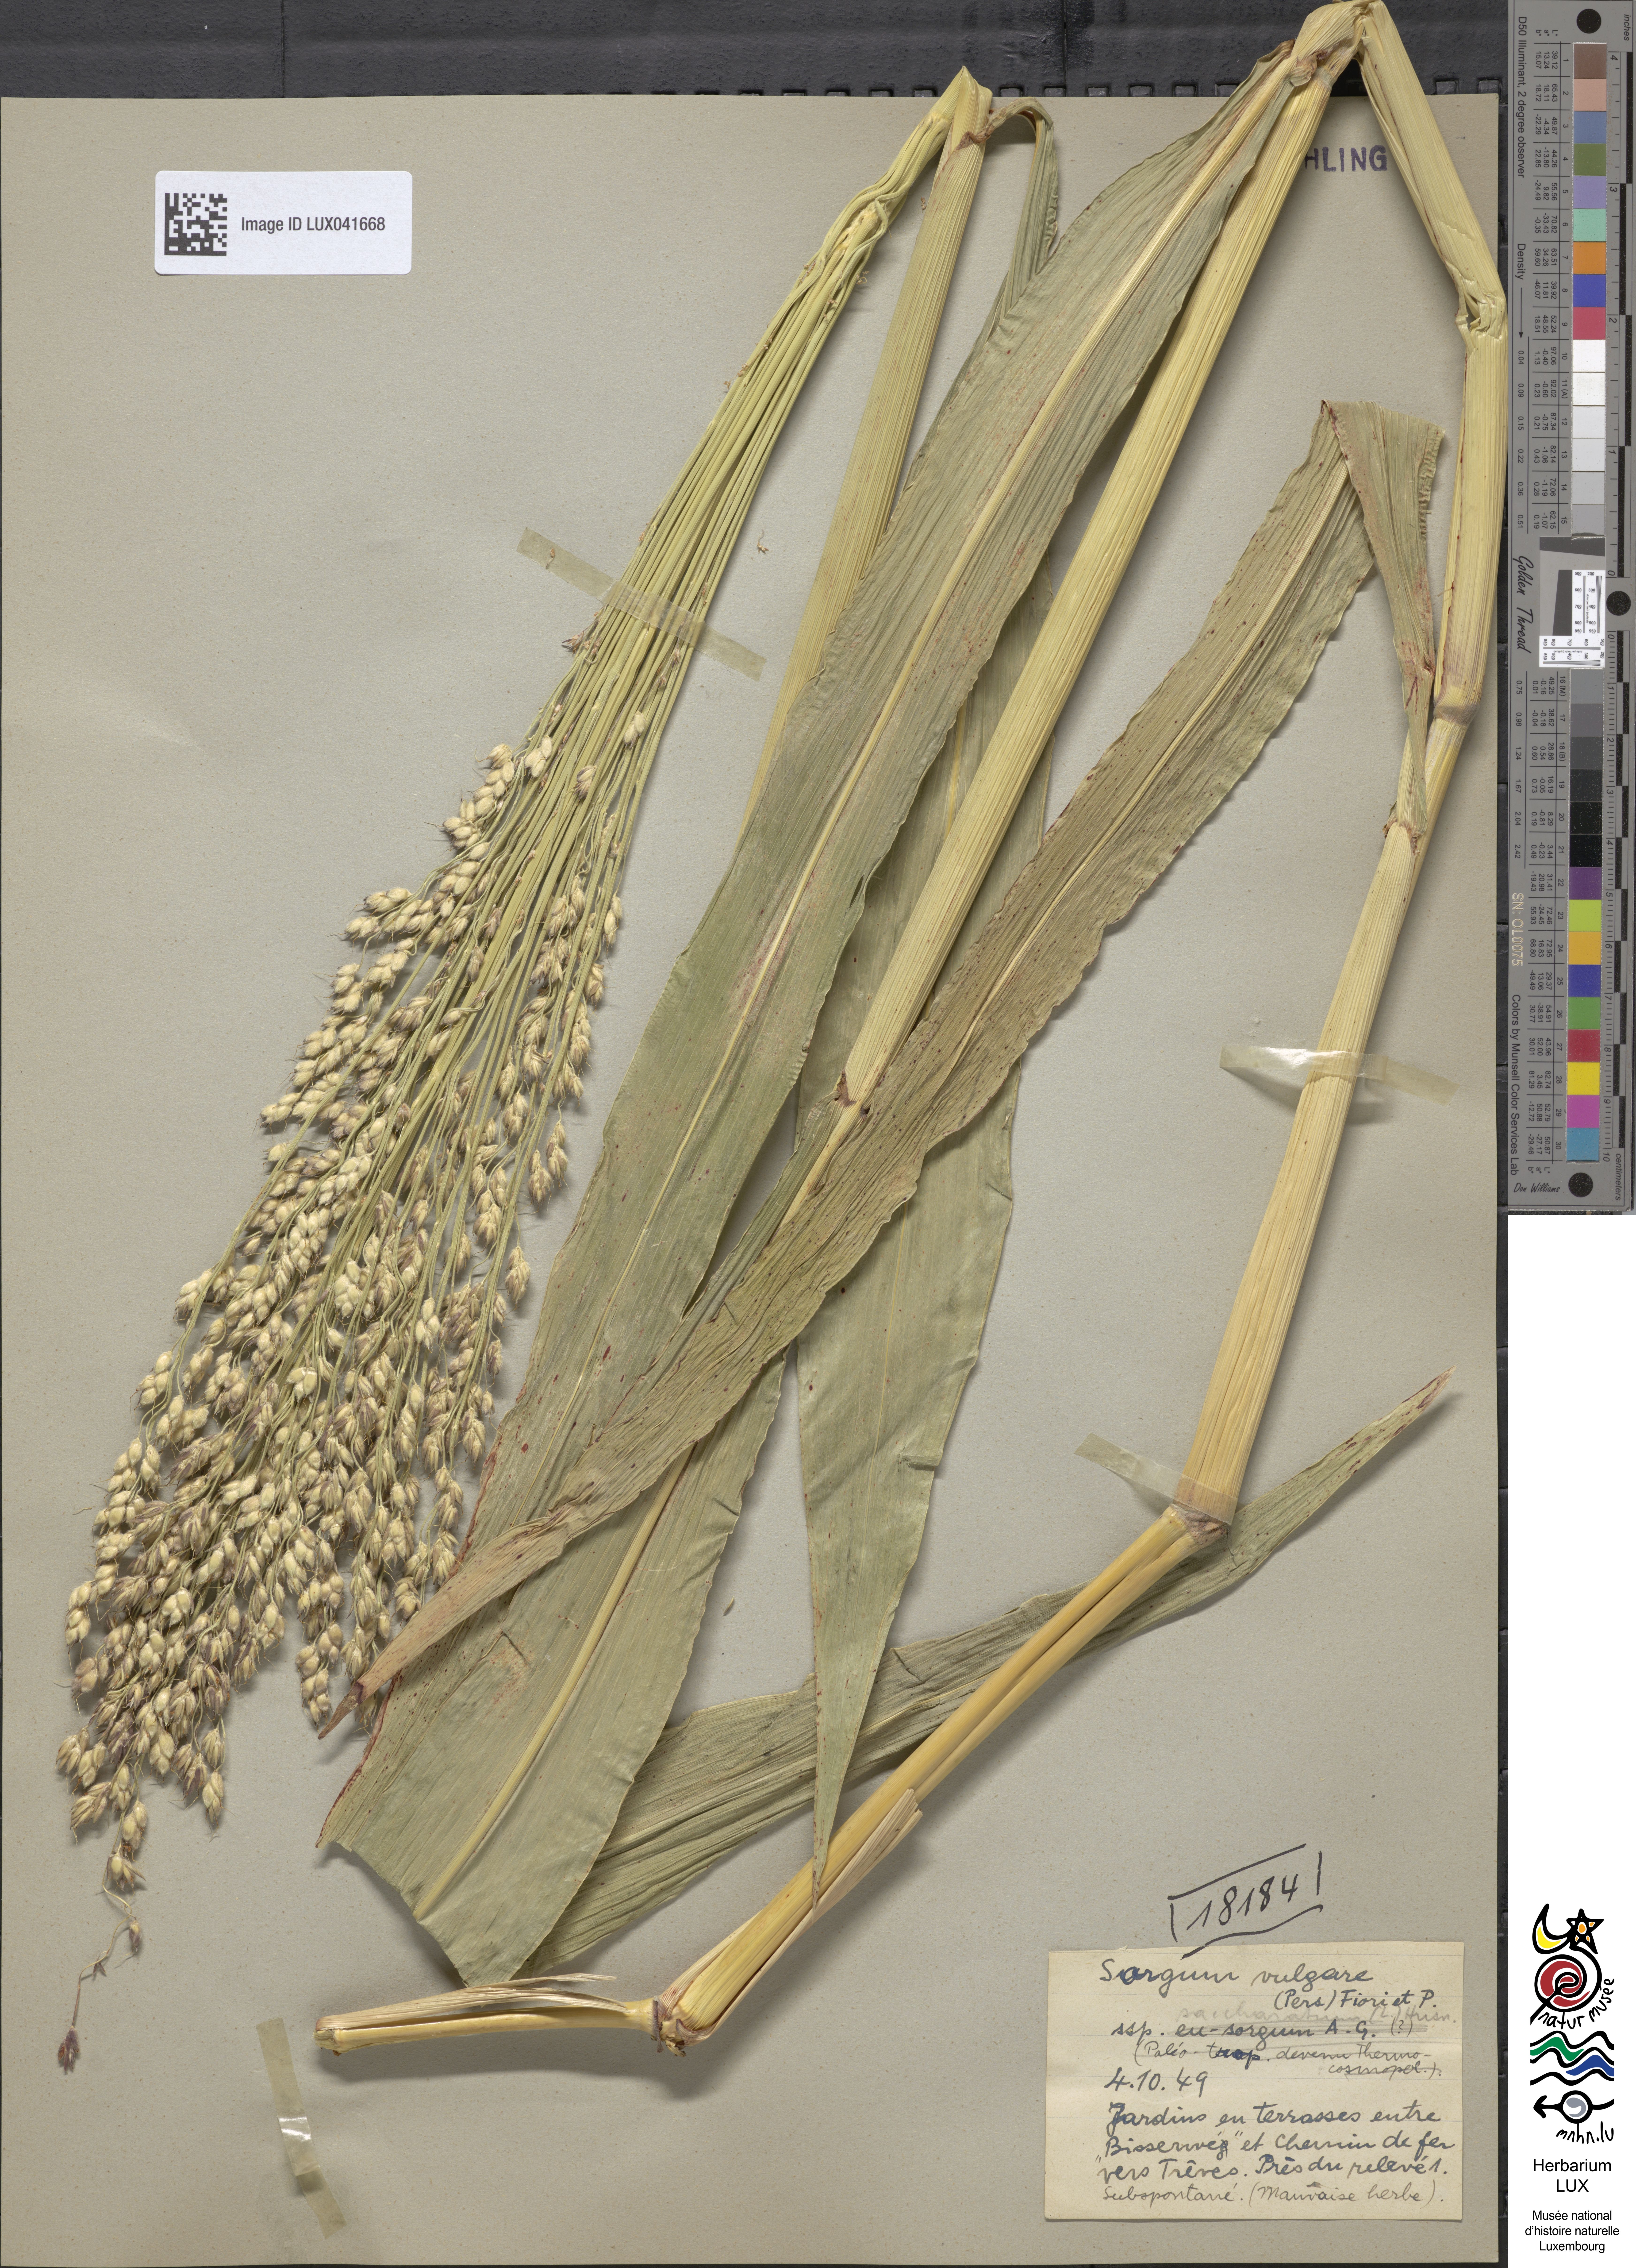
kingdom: Plantae
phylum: Tracheophyta
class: Liliopsida
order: Poales
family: Poaceae
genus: Sorghum
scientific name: Sorghum bicolor
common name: Sorghum
